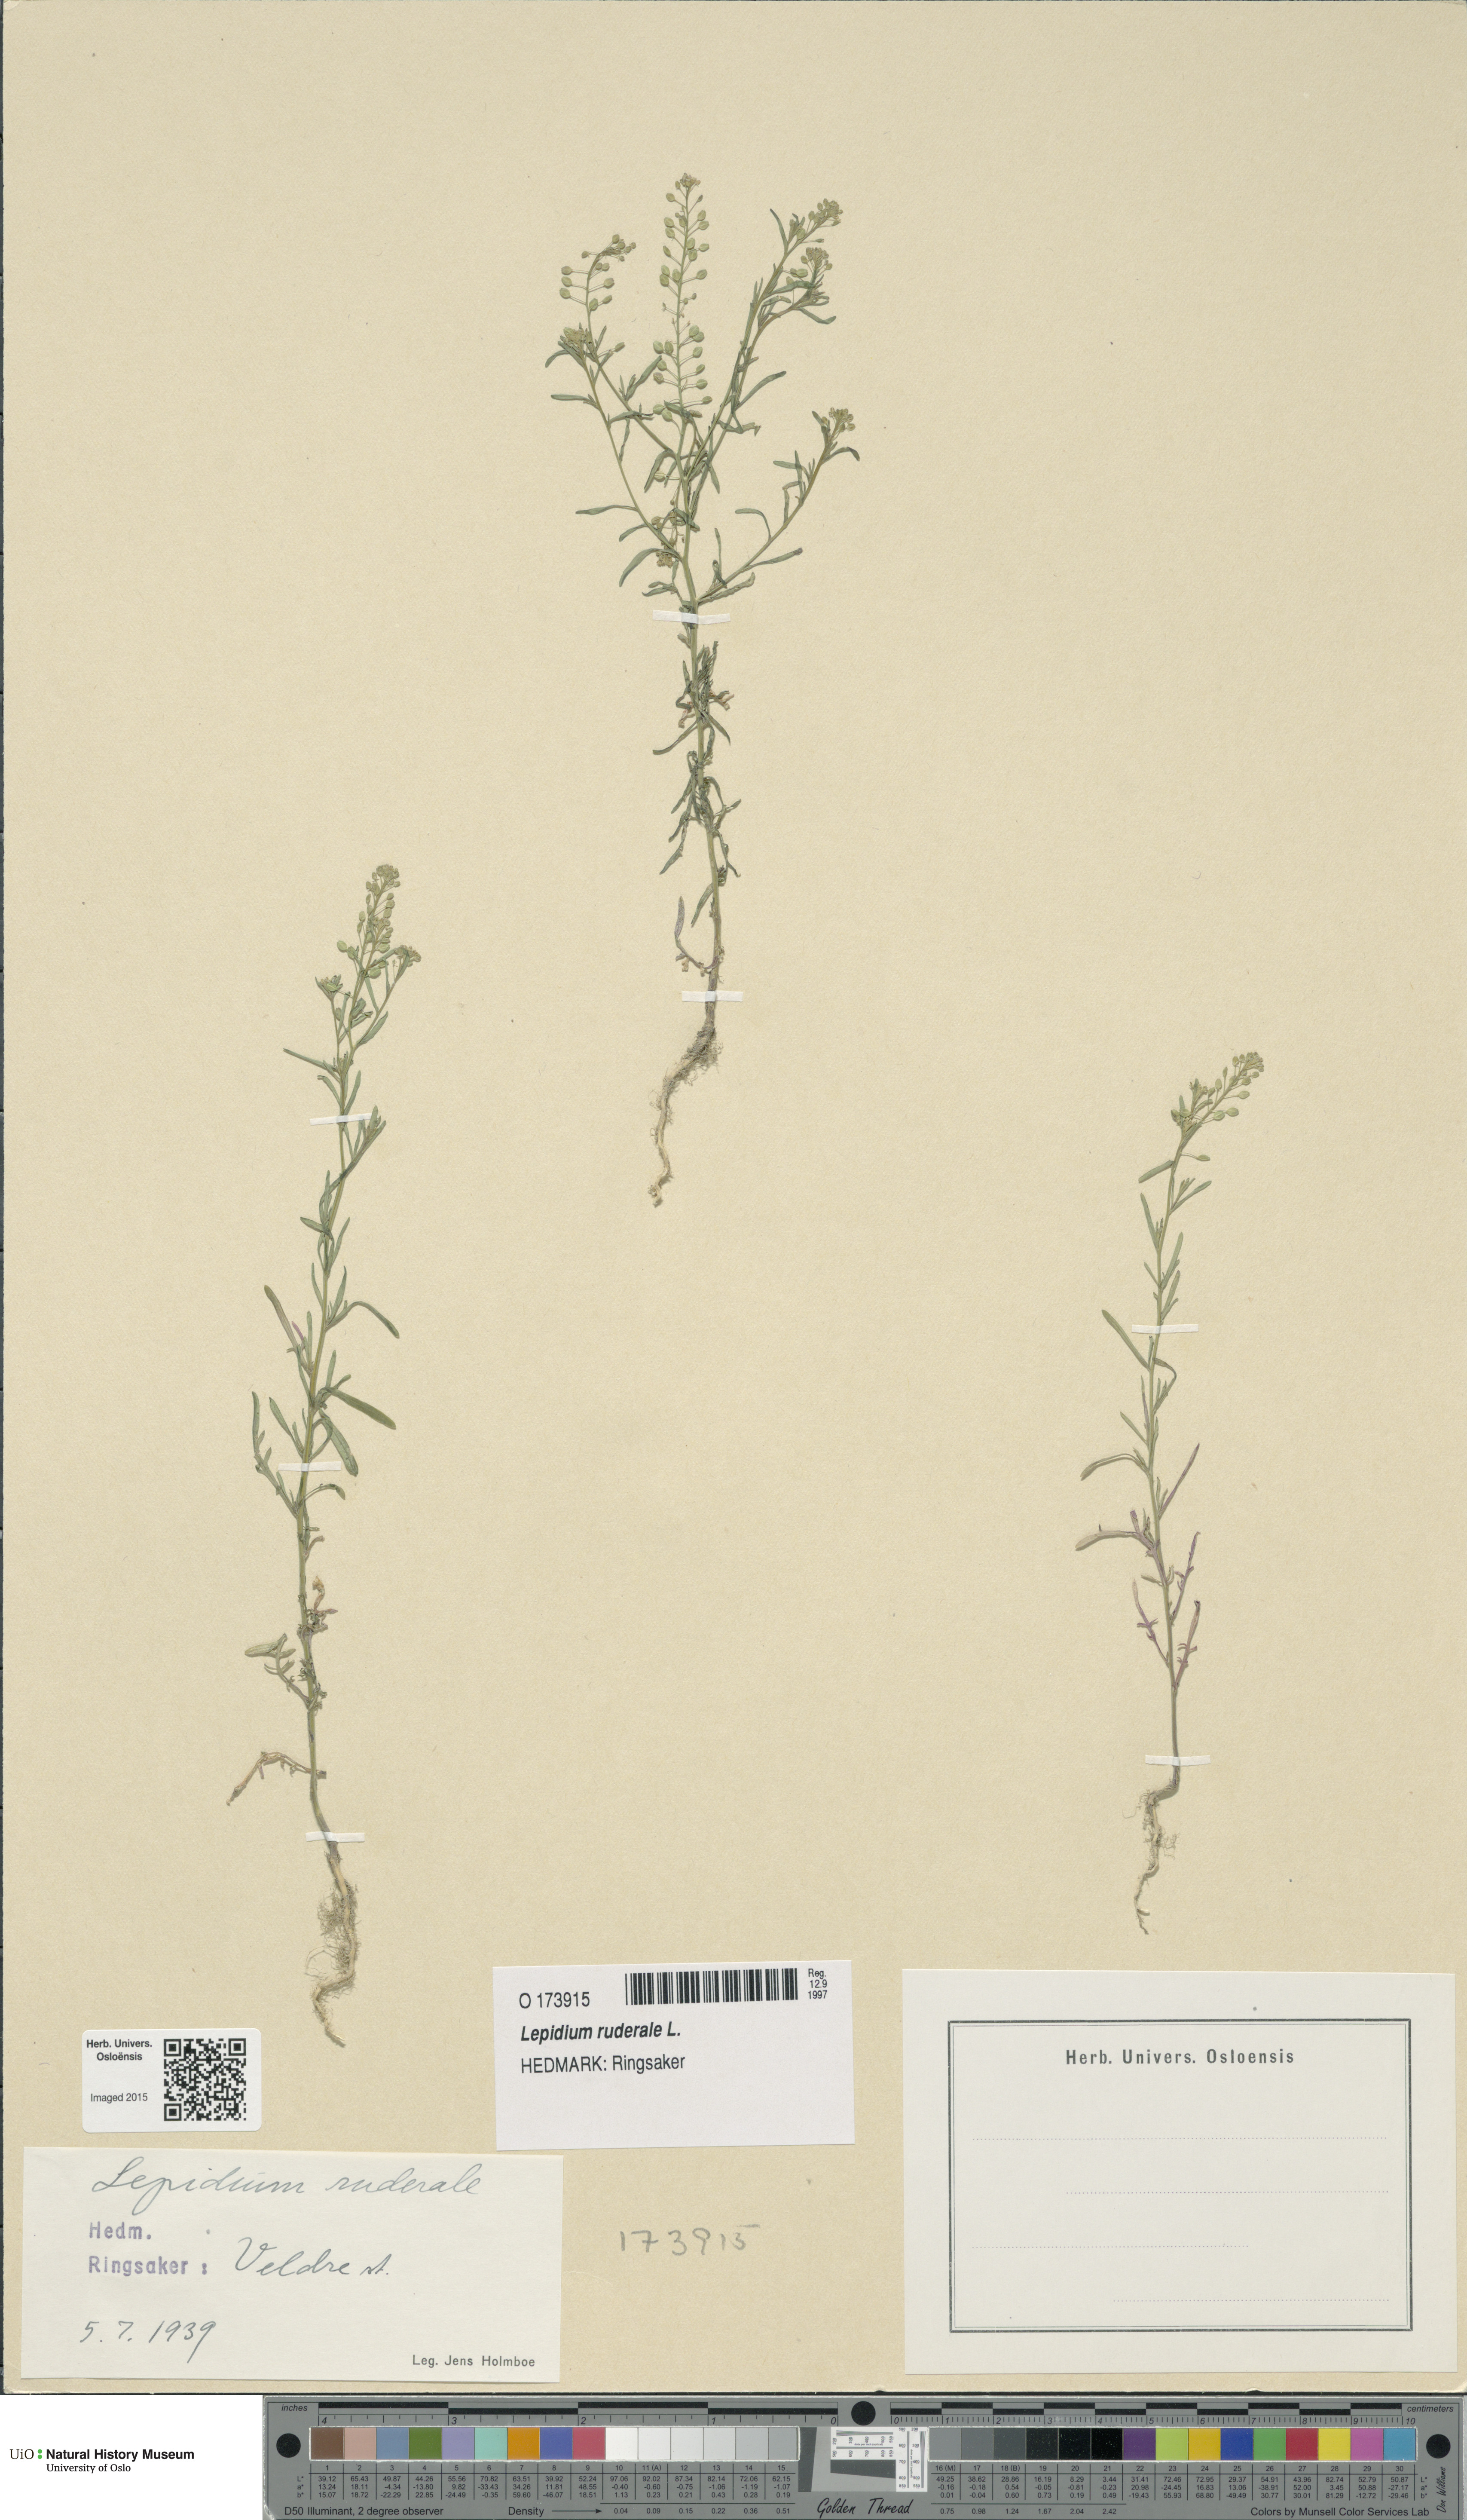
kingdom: Plantae
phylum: Tracheophyta
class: Magnoliopsida
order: Brassicales
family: Brassicaceae
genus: Lepidium
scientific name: Lepidium ruderale
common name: Narrow-leaved pepperwort
